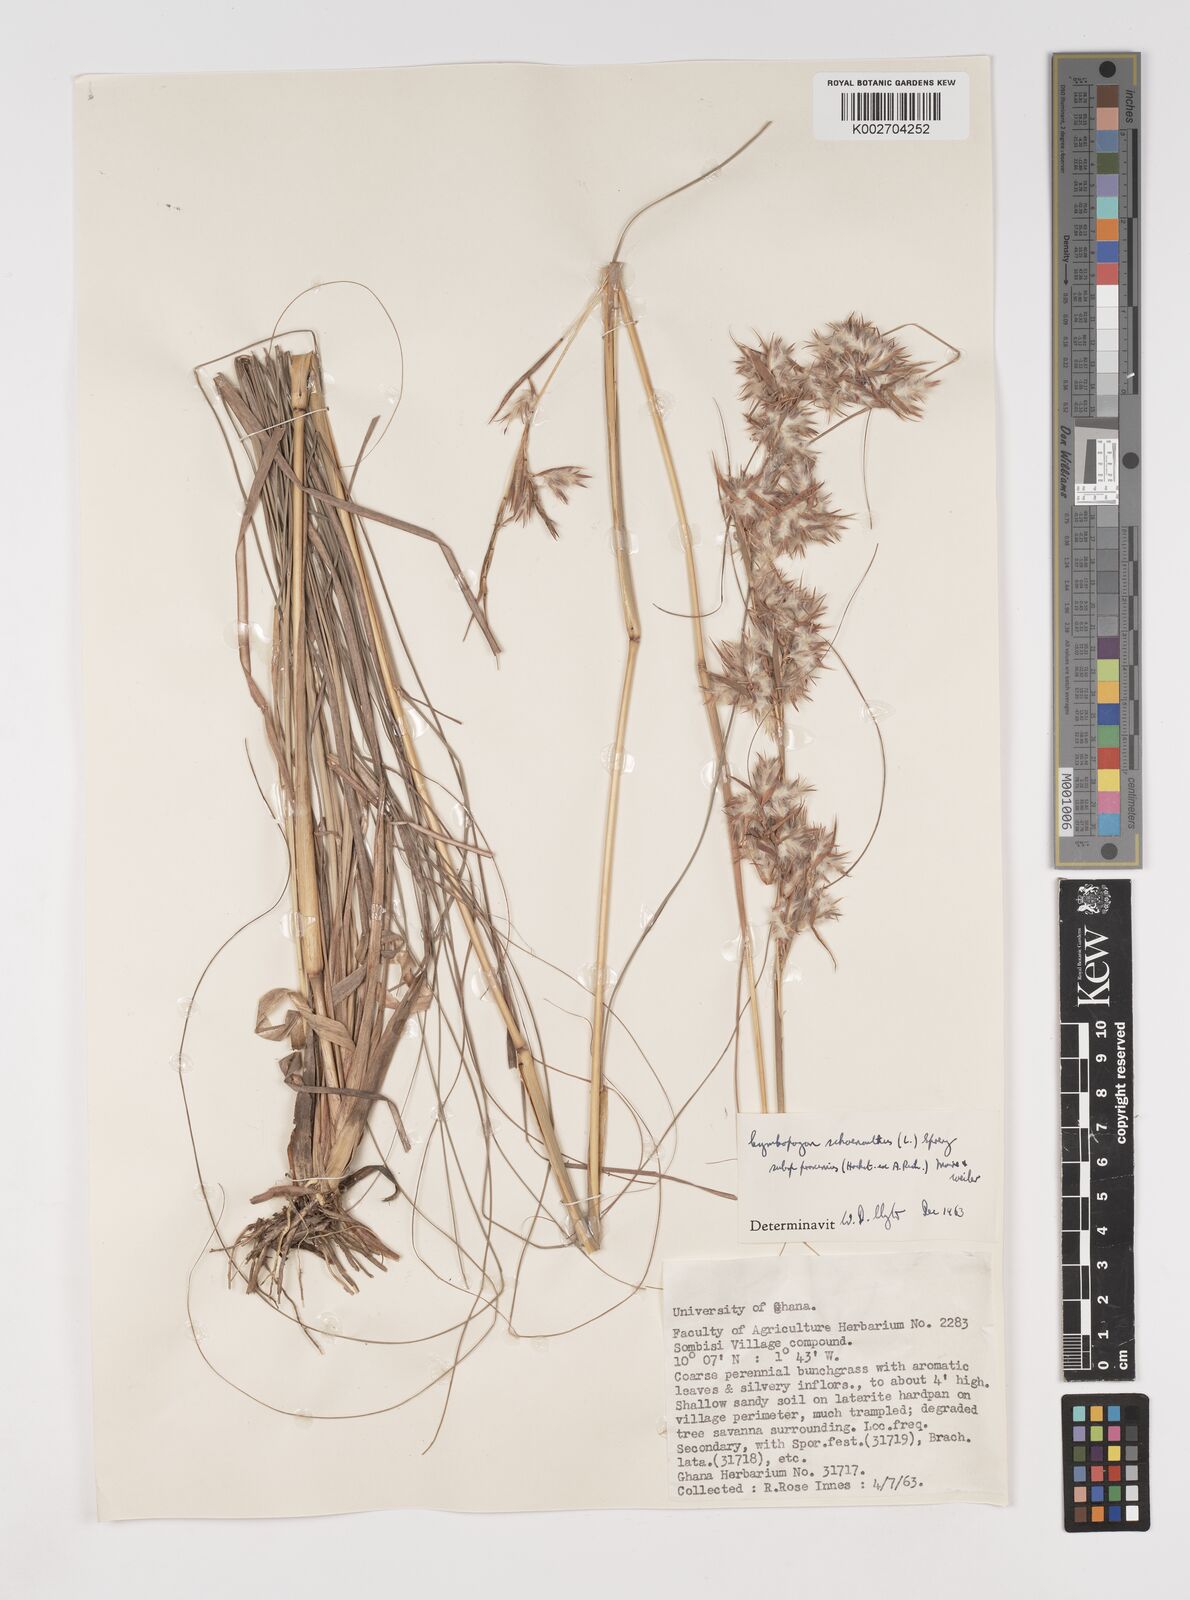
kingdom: Plantae
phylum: Tracheophyta
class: Liliopsida
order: Poales
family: Poaceae
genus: Cymbopogon
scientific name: Cymbopogon schoenanthus
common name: Geranium grass
